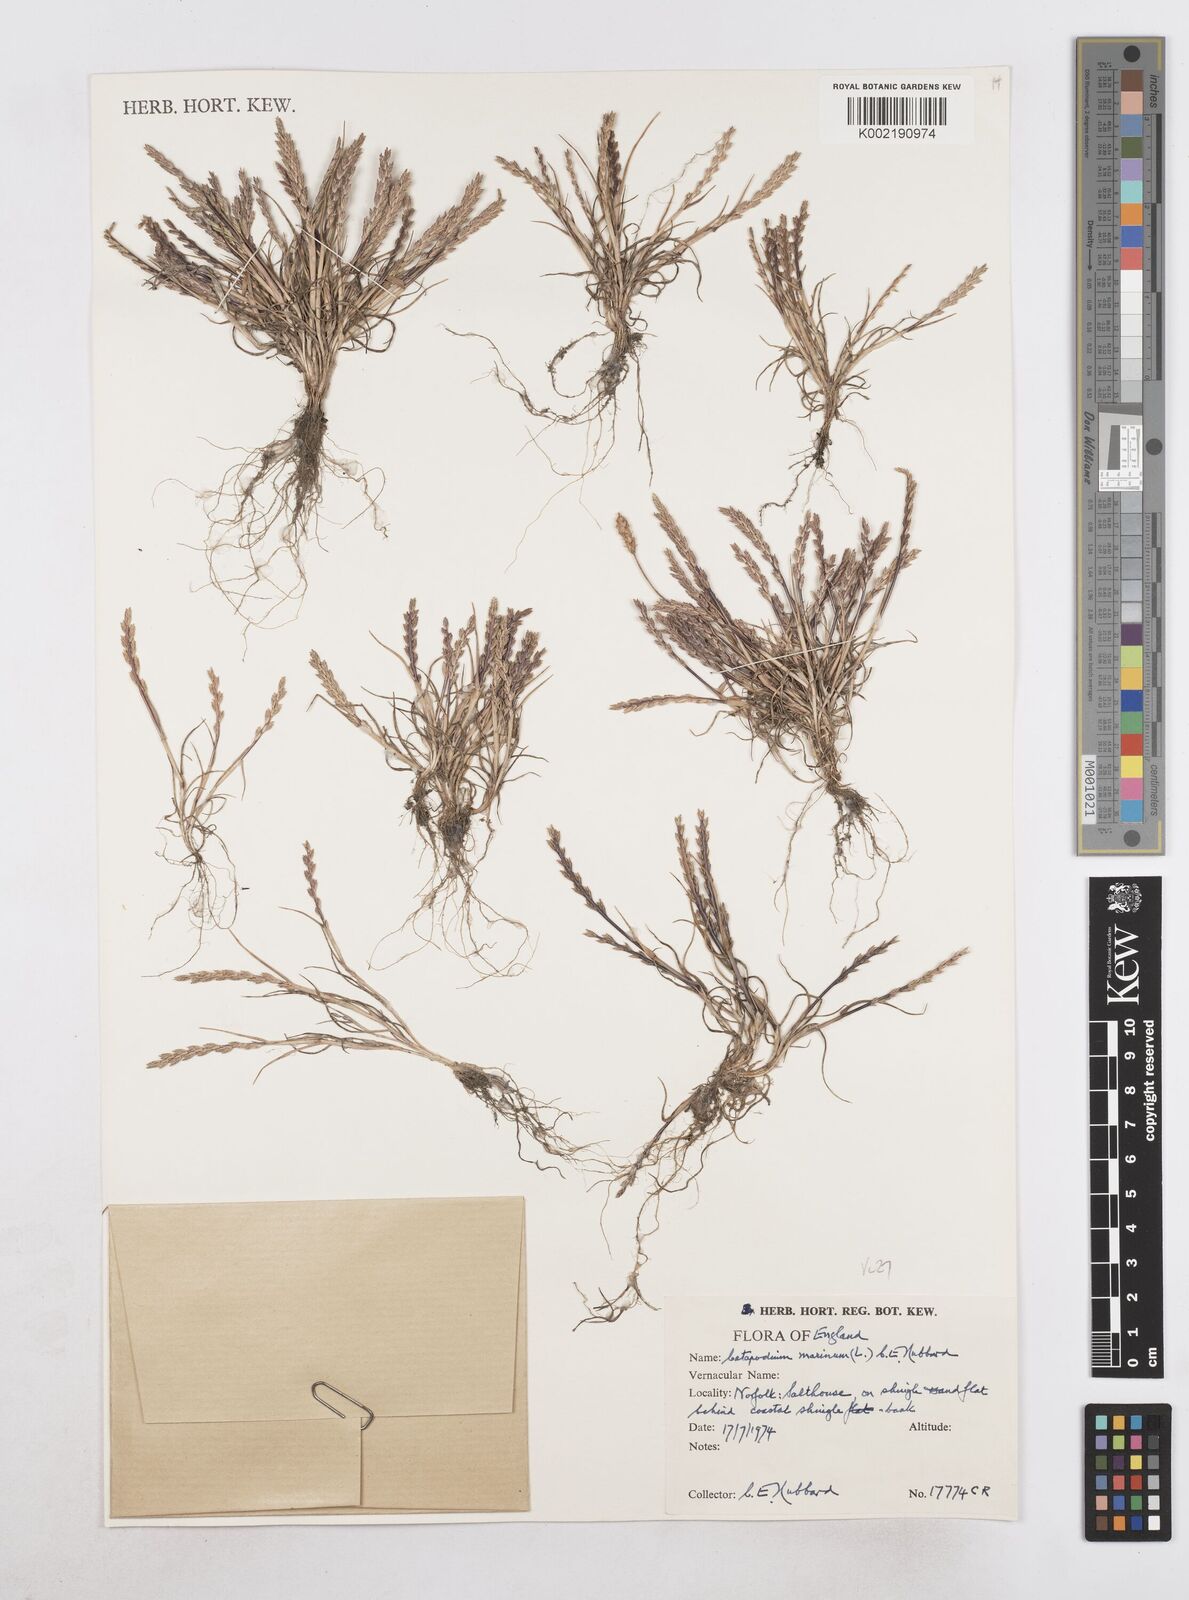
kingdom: Plantae
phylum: Tracheophyta
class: Liliopsida
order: Poales
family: Poaceae
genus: Catapodium
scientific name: Catapodium marinum
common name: Sea fern-grass
